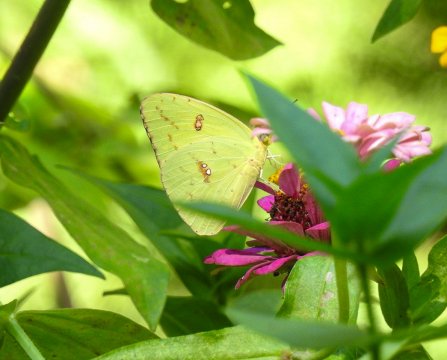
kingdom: Animalia
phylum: Arthropoda
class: Insecta
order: Lepidoptera
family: Pieridae
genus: Phoebis
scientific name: Phoebis sennae
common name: Cloudless Sulphur
